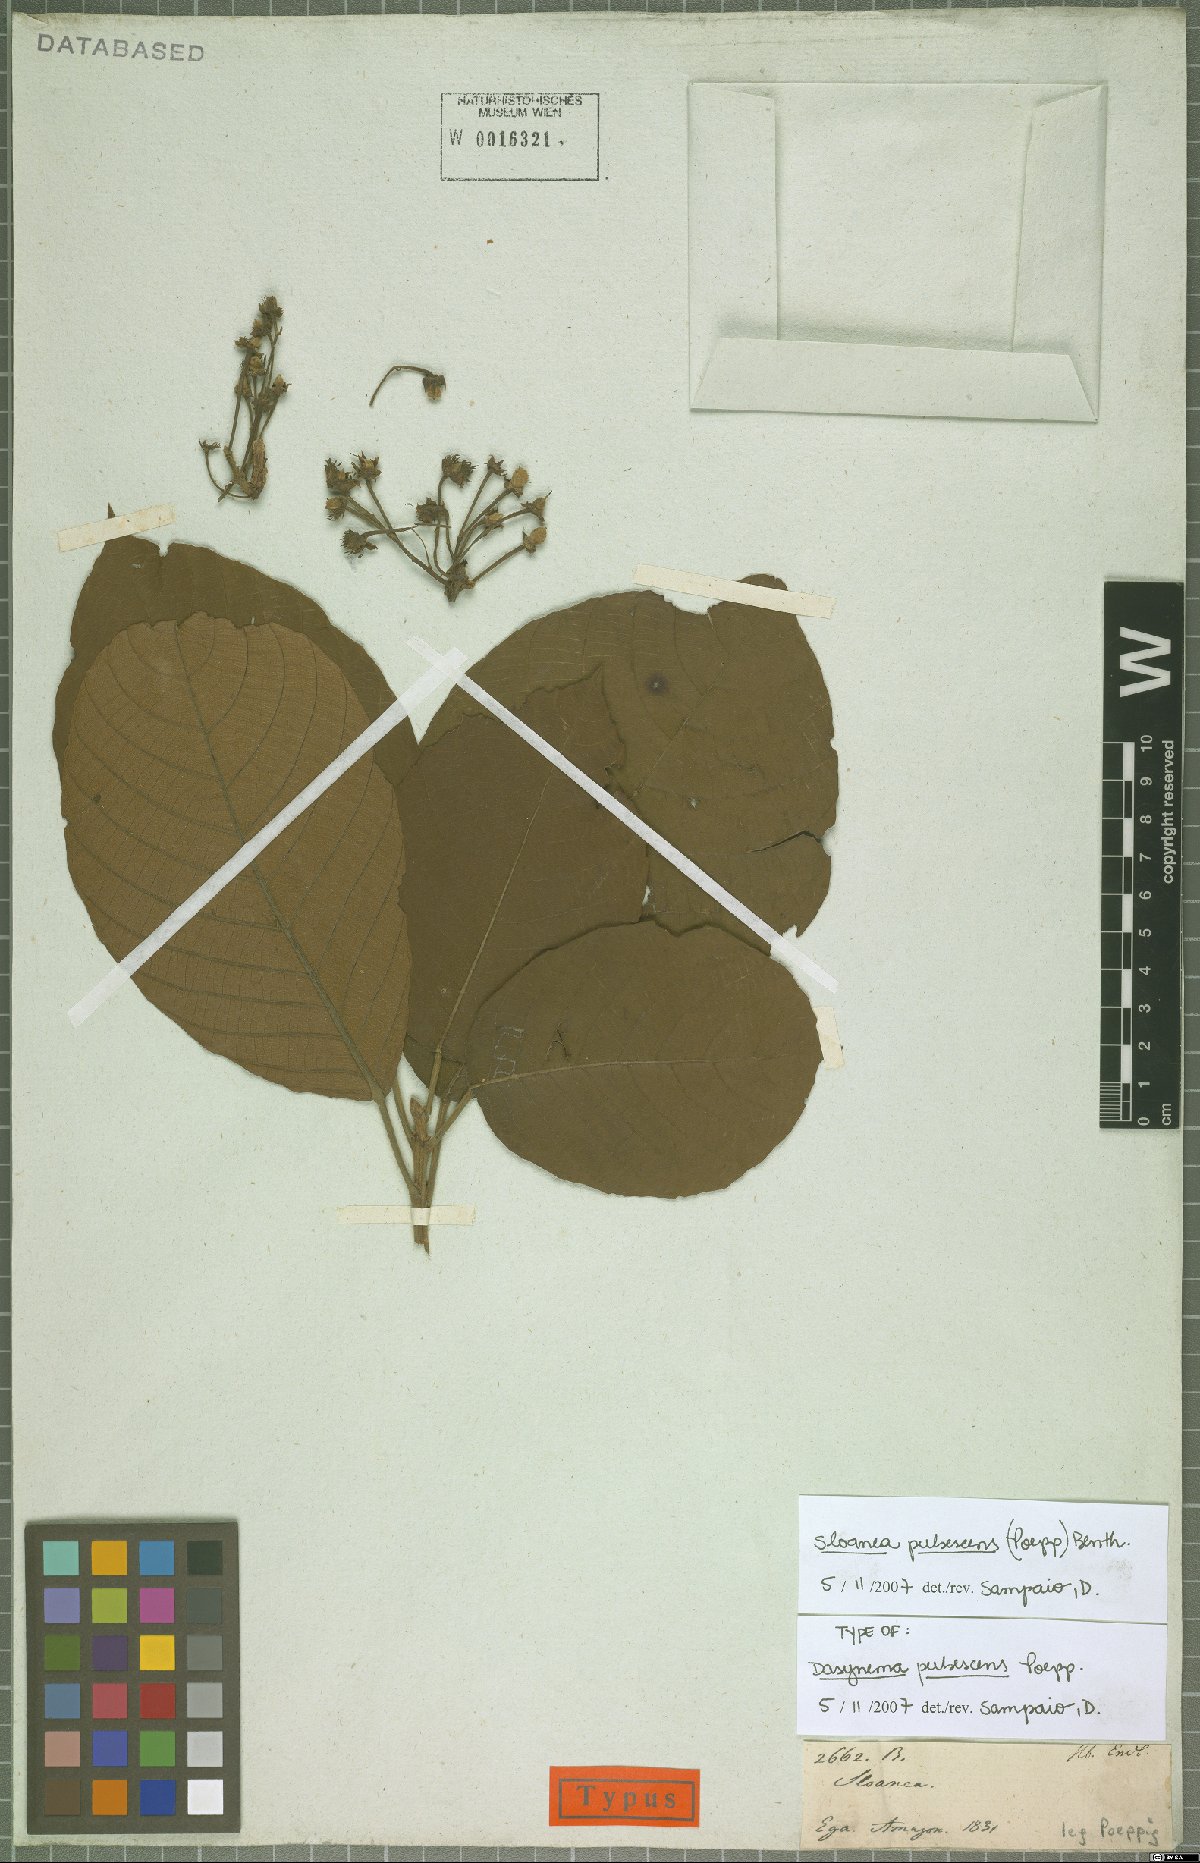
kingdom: Plantae
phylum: Tracheophyta
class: Magnoliopsida
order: Oxalidales
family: Elaeocarpaceae
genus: Sloanea
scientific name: Sloanea pubescens
